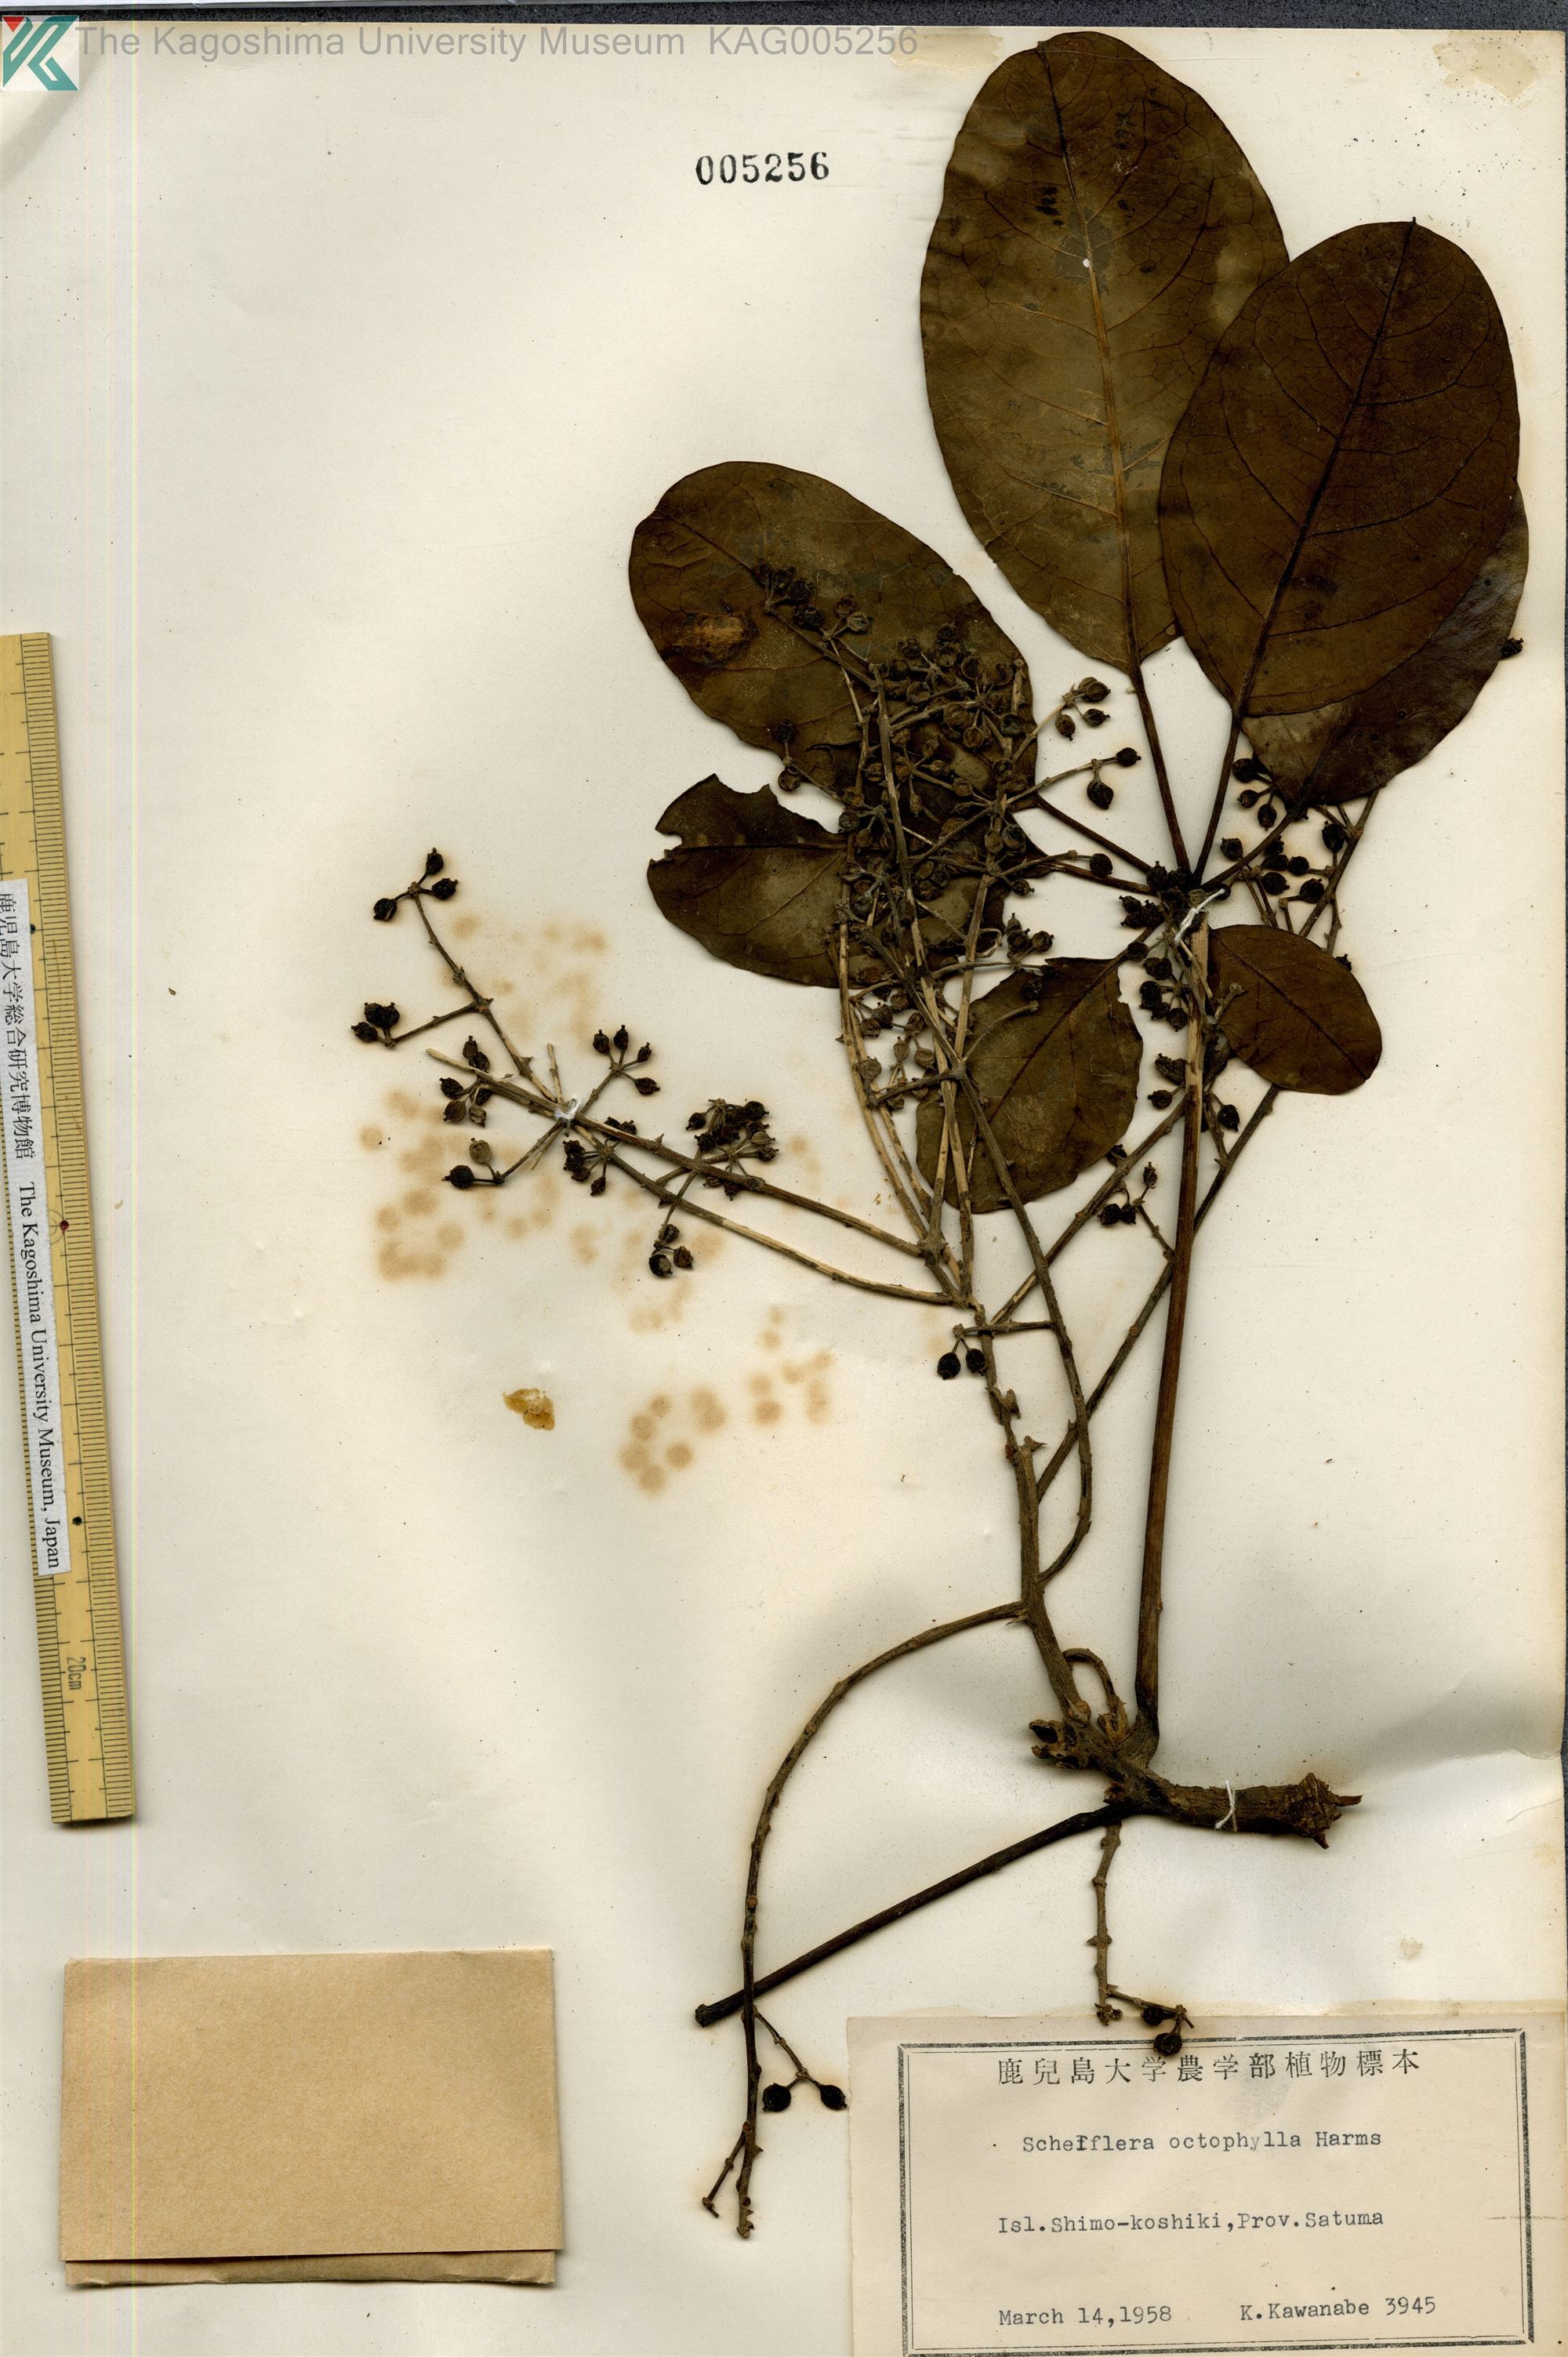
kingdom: Plantae
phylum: Tracheophyta
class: Magnoliopsida
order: Apiales
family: Araliaceae
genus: Heptapleurum
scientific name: Heptapleurum heptaphyllum
